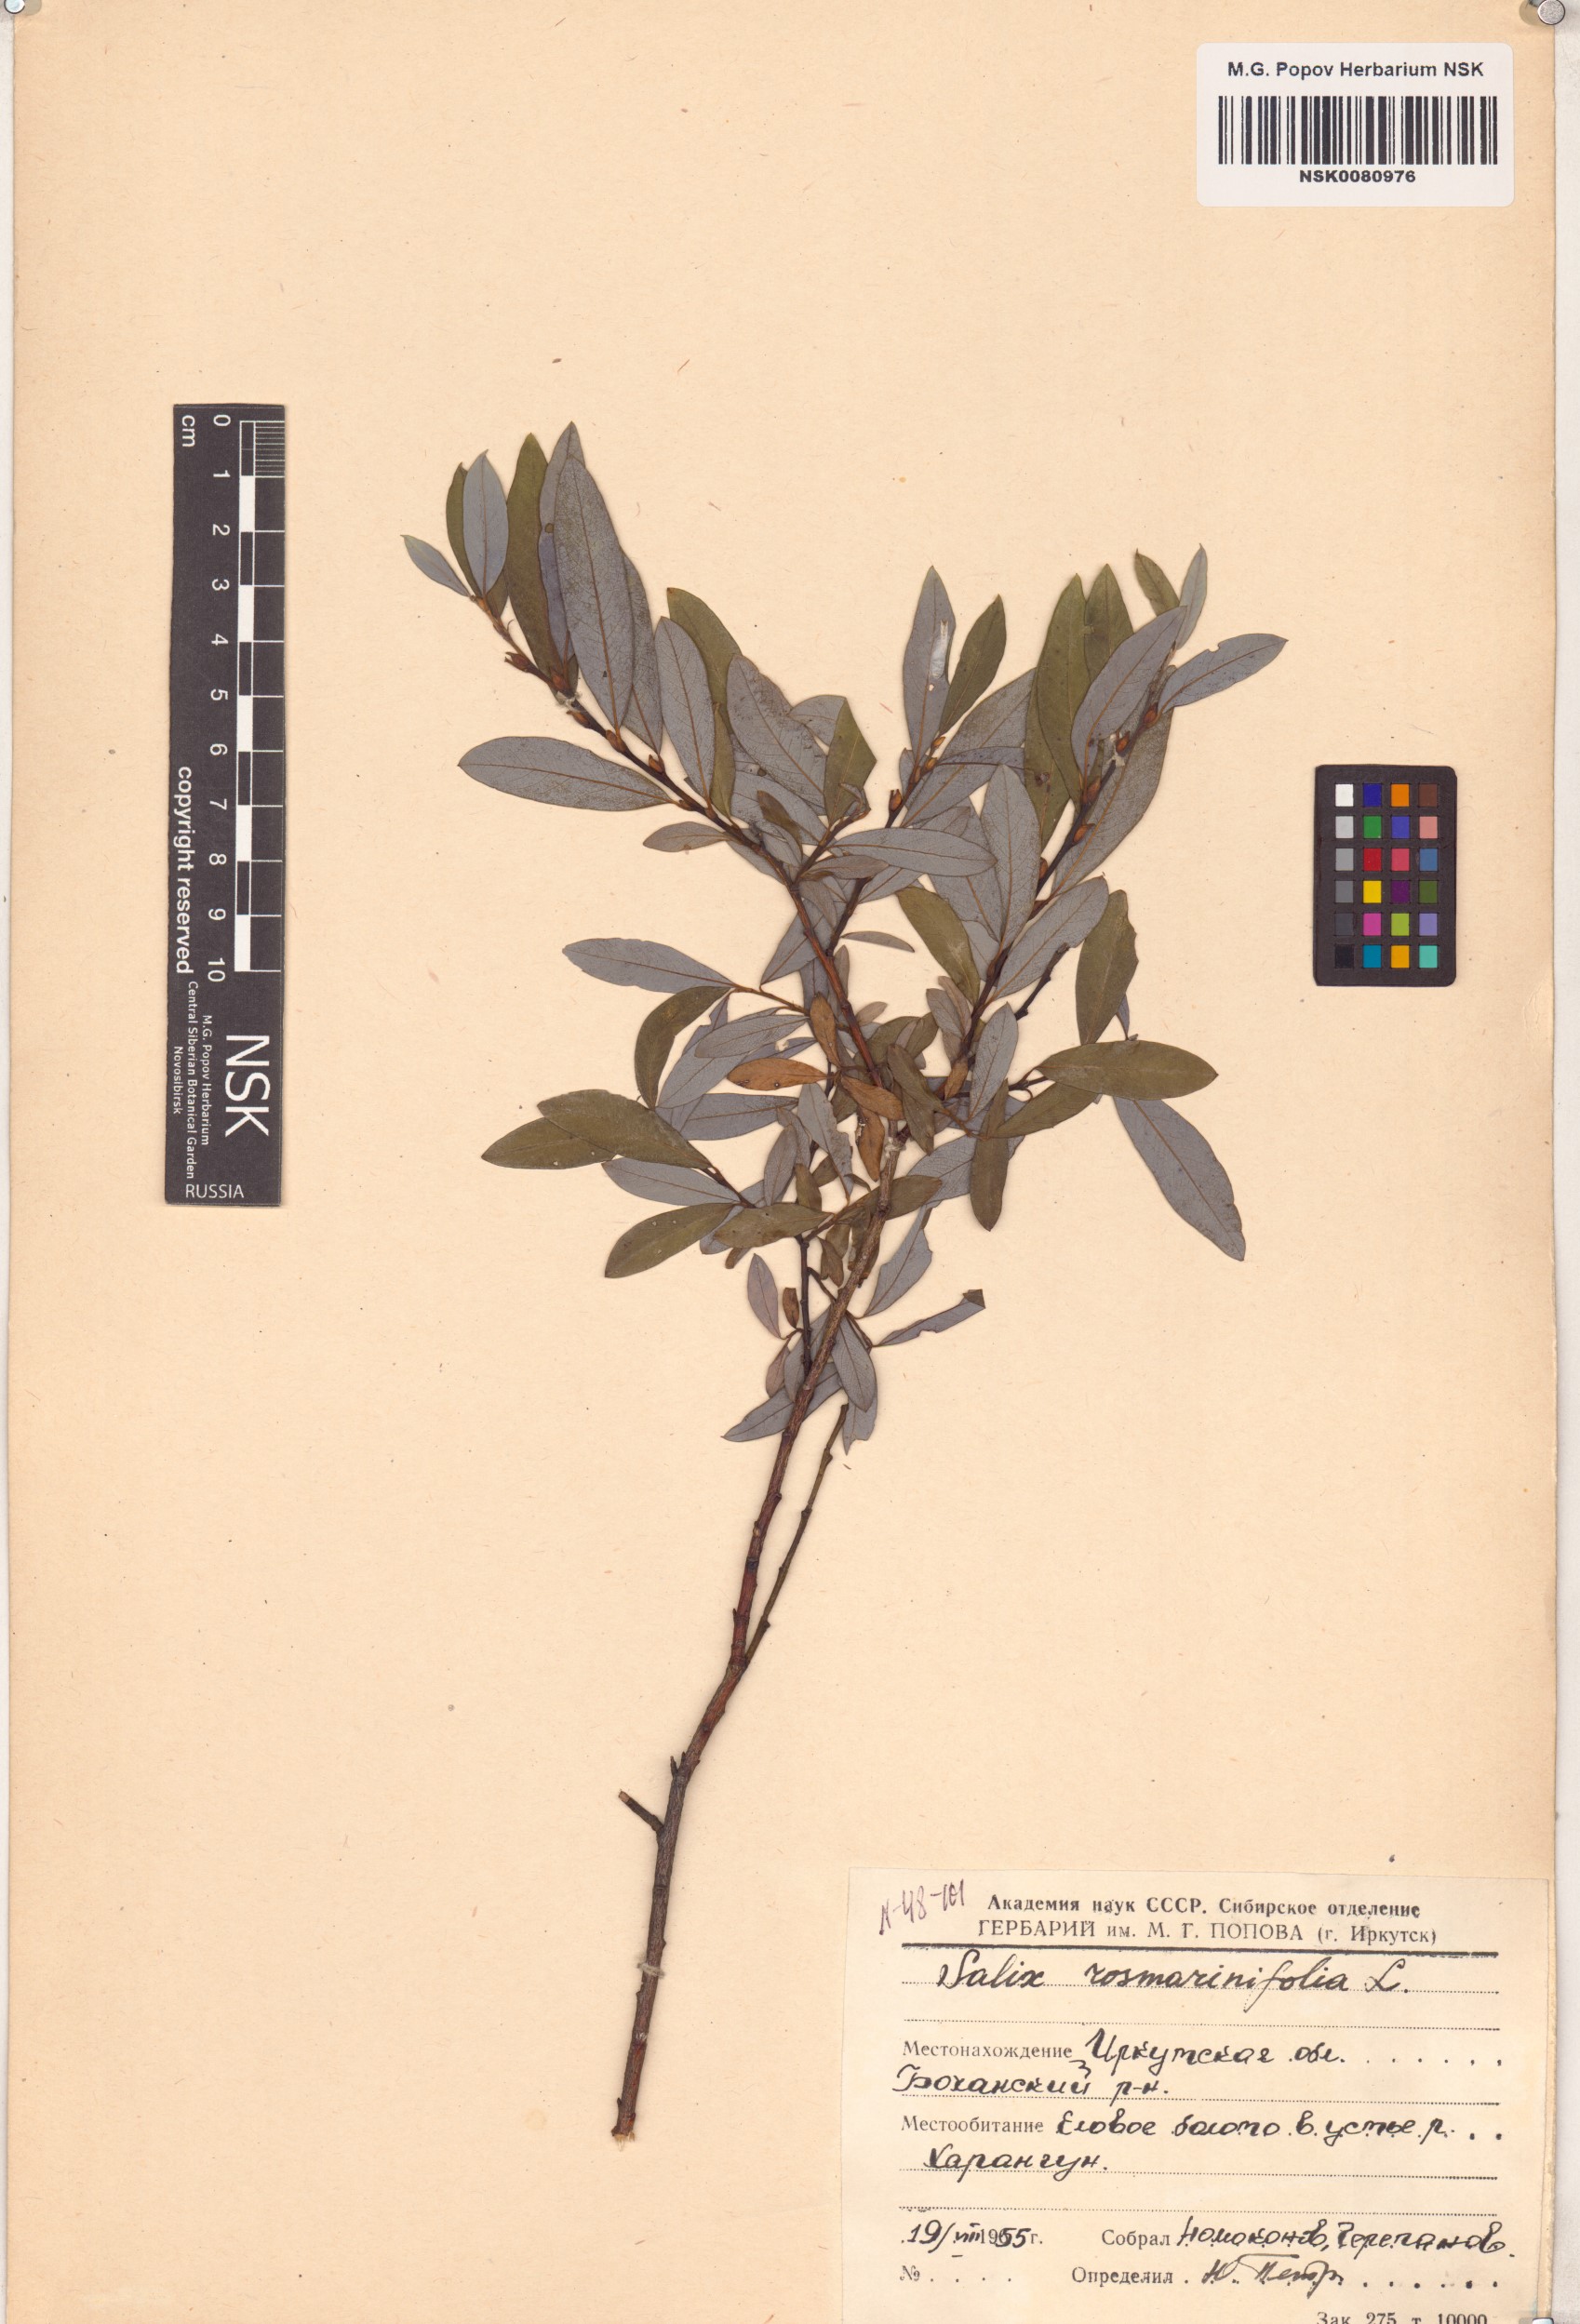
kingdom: Plantae
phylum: Tracheophyta
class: Magnoliopsida
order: Malpighiales
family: Salicaceae
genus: Salix
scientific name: Salix rosmarinifolia
